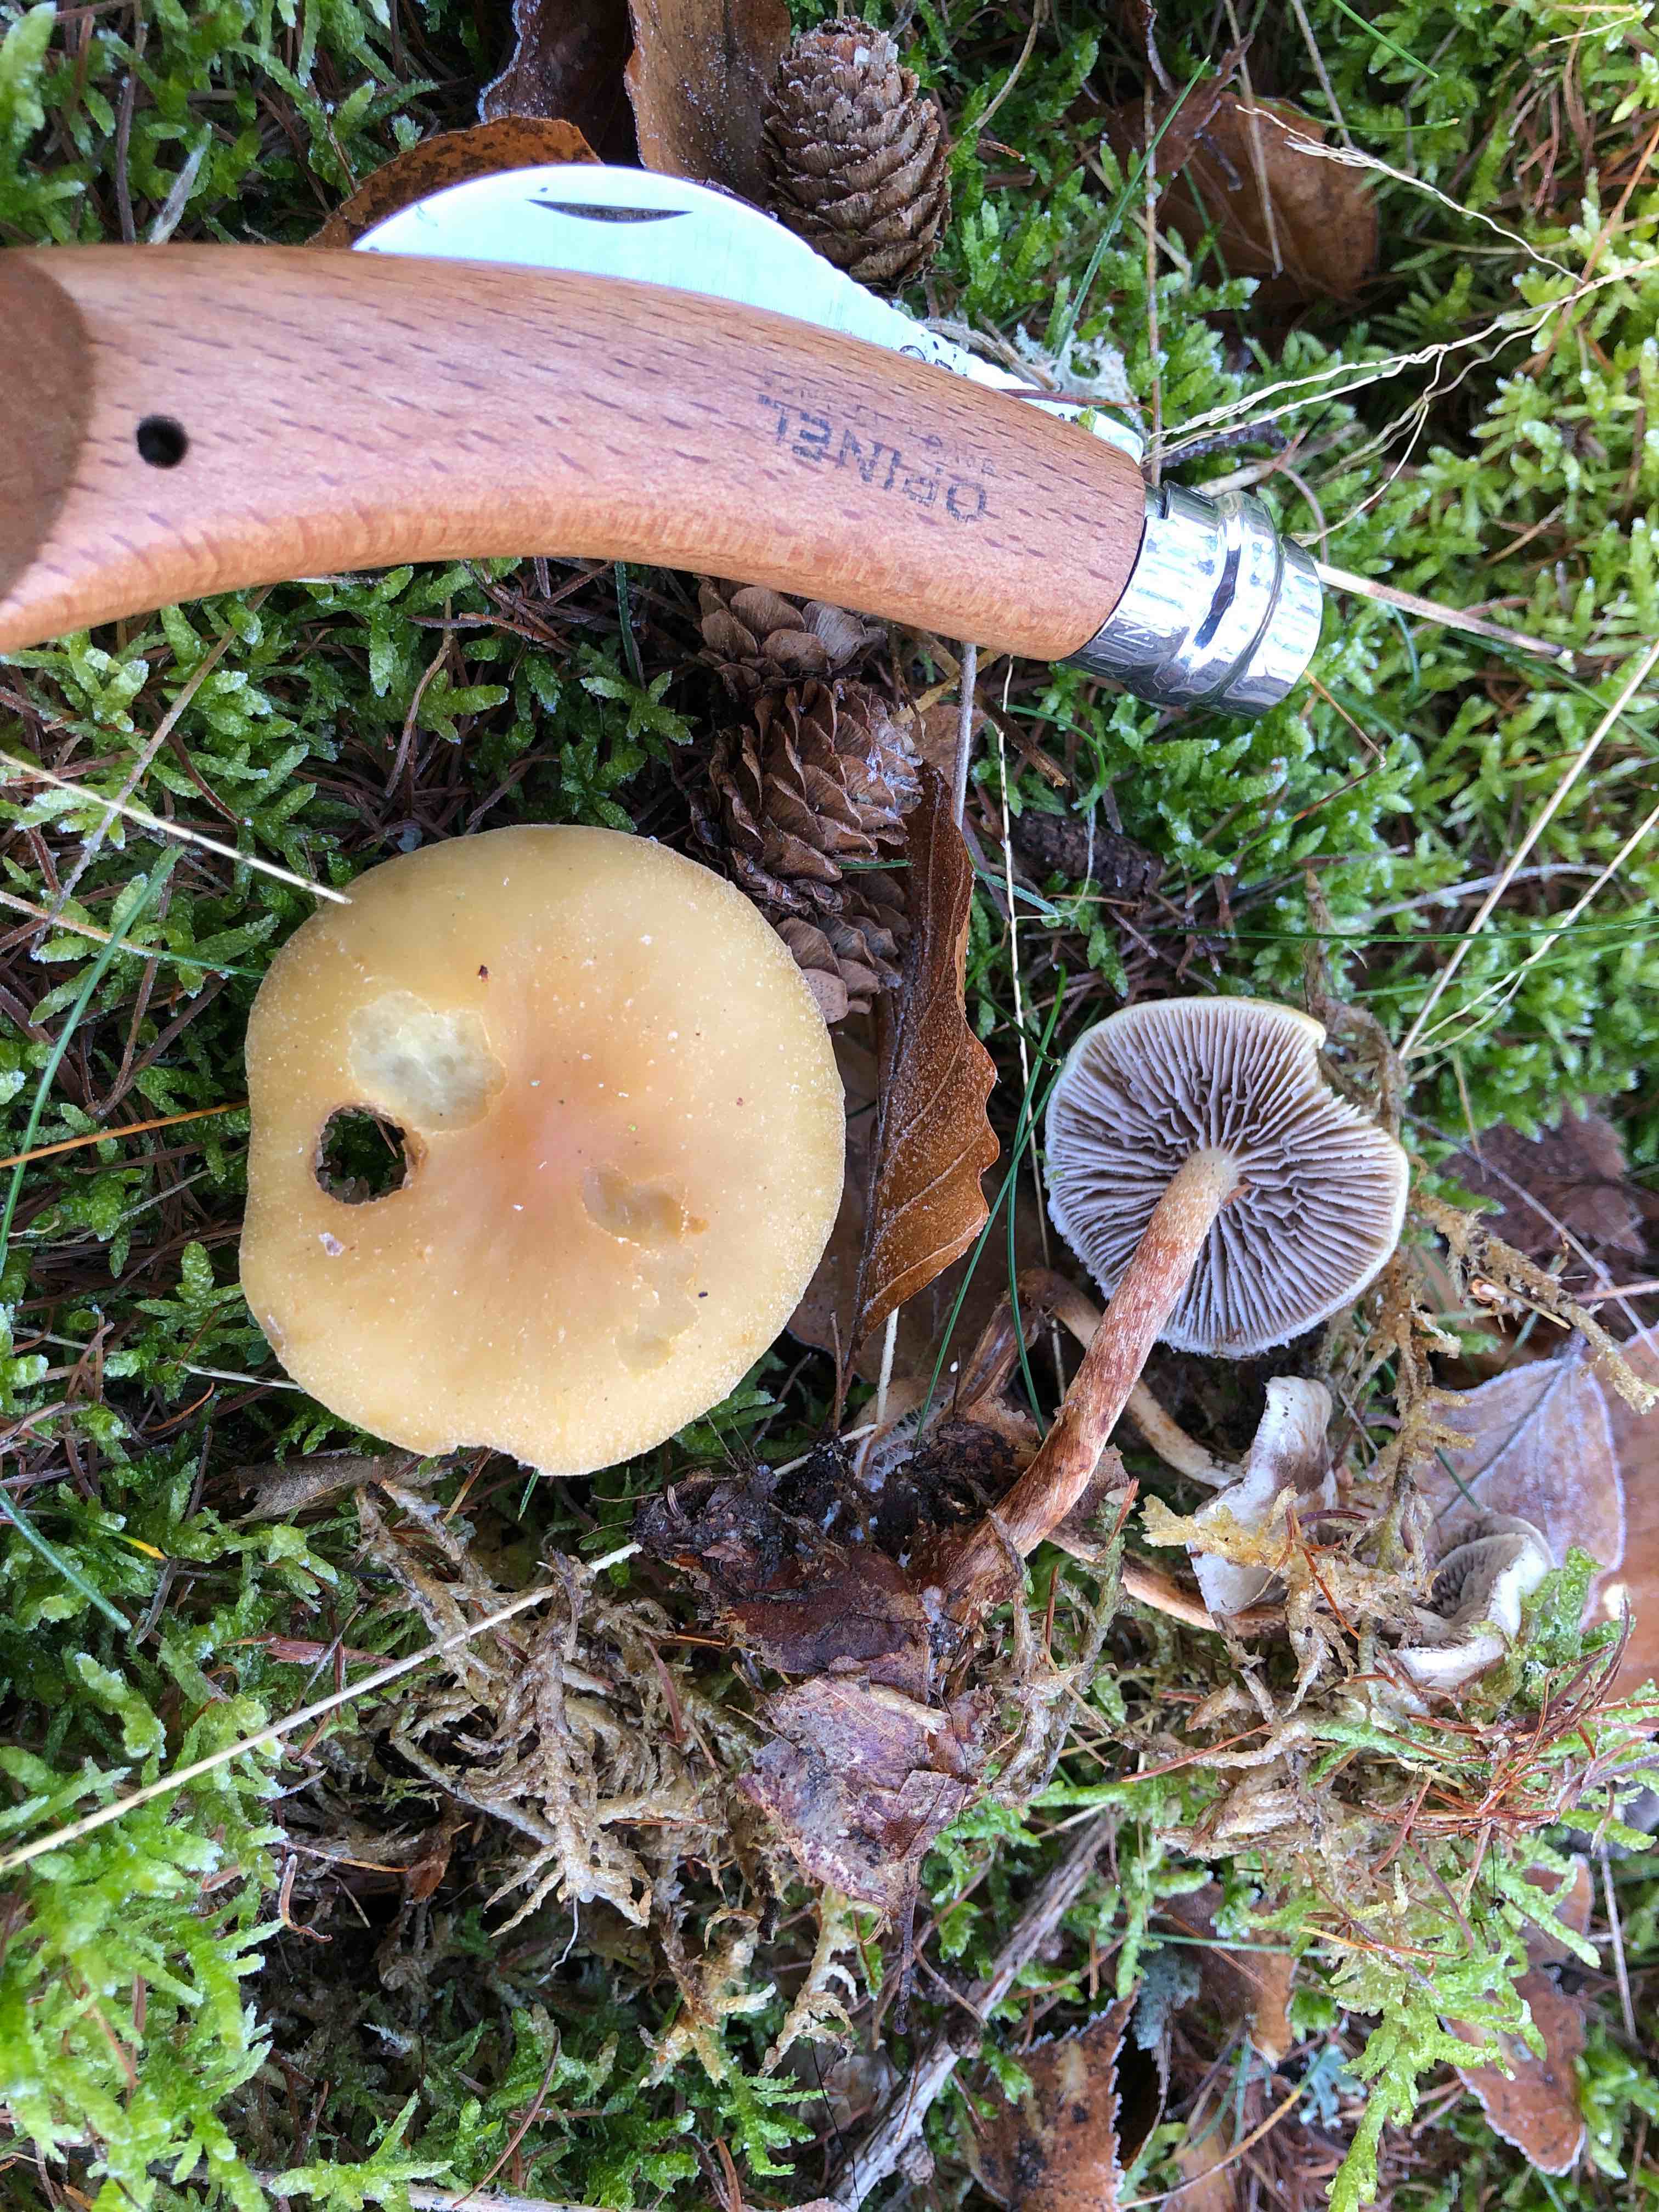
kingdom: Fungi
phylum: Basidiomycota
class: Agaricomycetes
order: Agaricales
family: Strophariaceae
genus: Hypholoma
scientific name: Hypholoma capnoides
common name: gran-svovlhat
